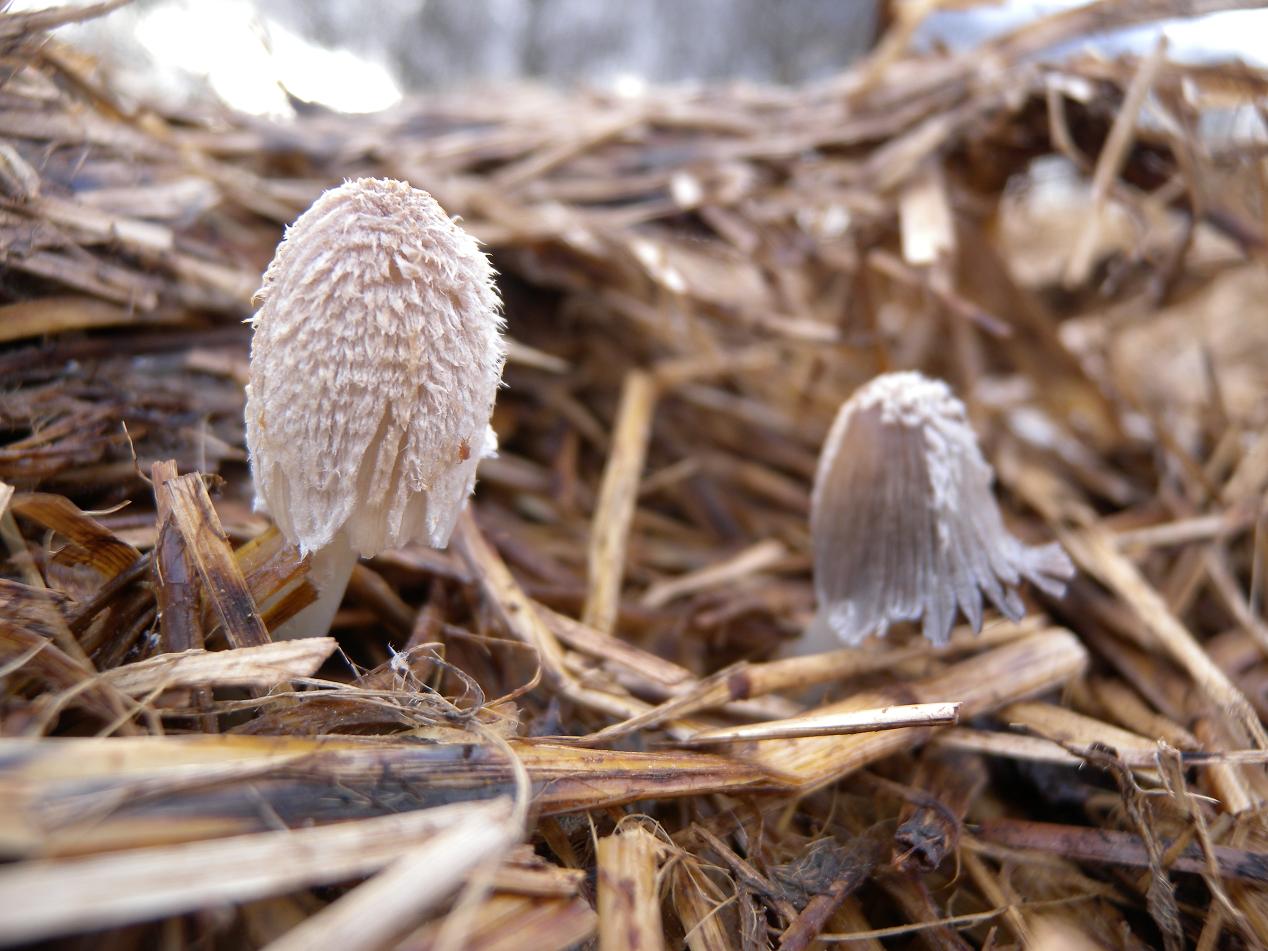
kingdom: Fungi
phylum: Basidiomycota
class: Agaricomycetes
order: Agaricales
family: Psathyrellaceae
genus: Coprinopsis
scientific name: Coprinopsis cinerea
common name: mødding-blækhat
